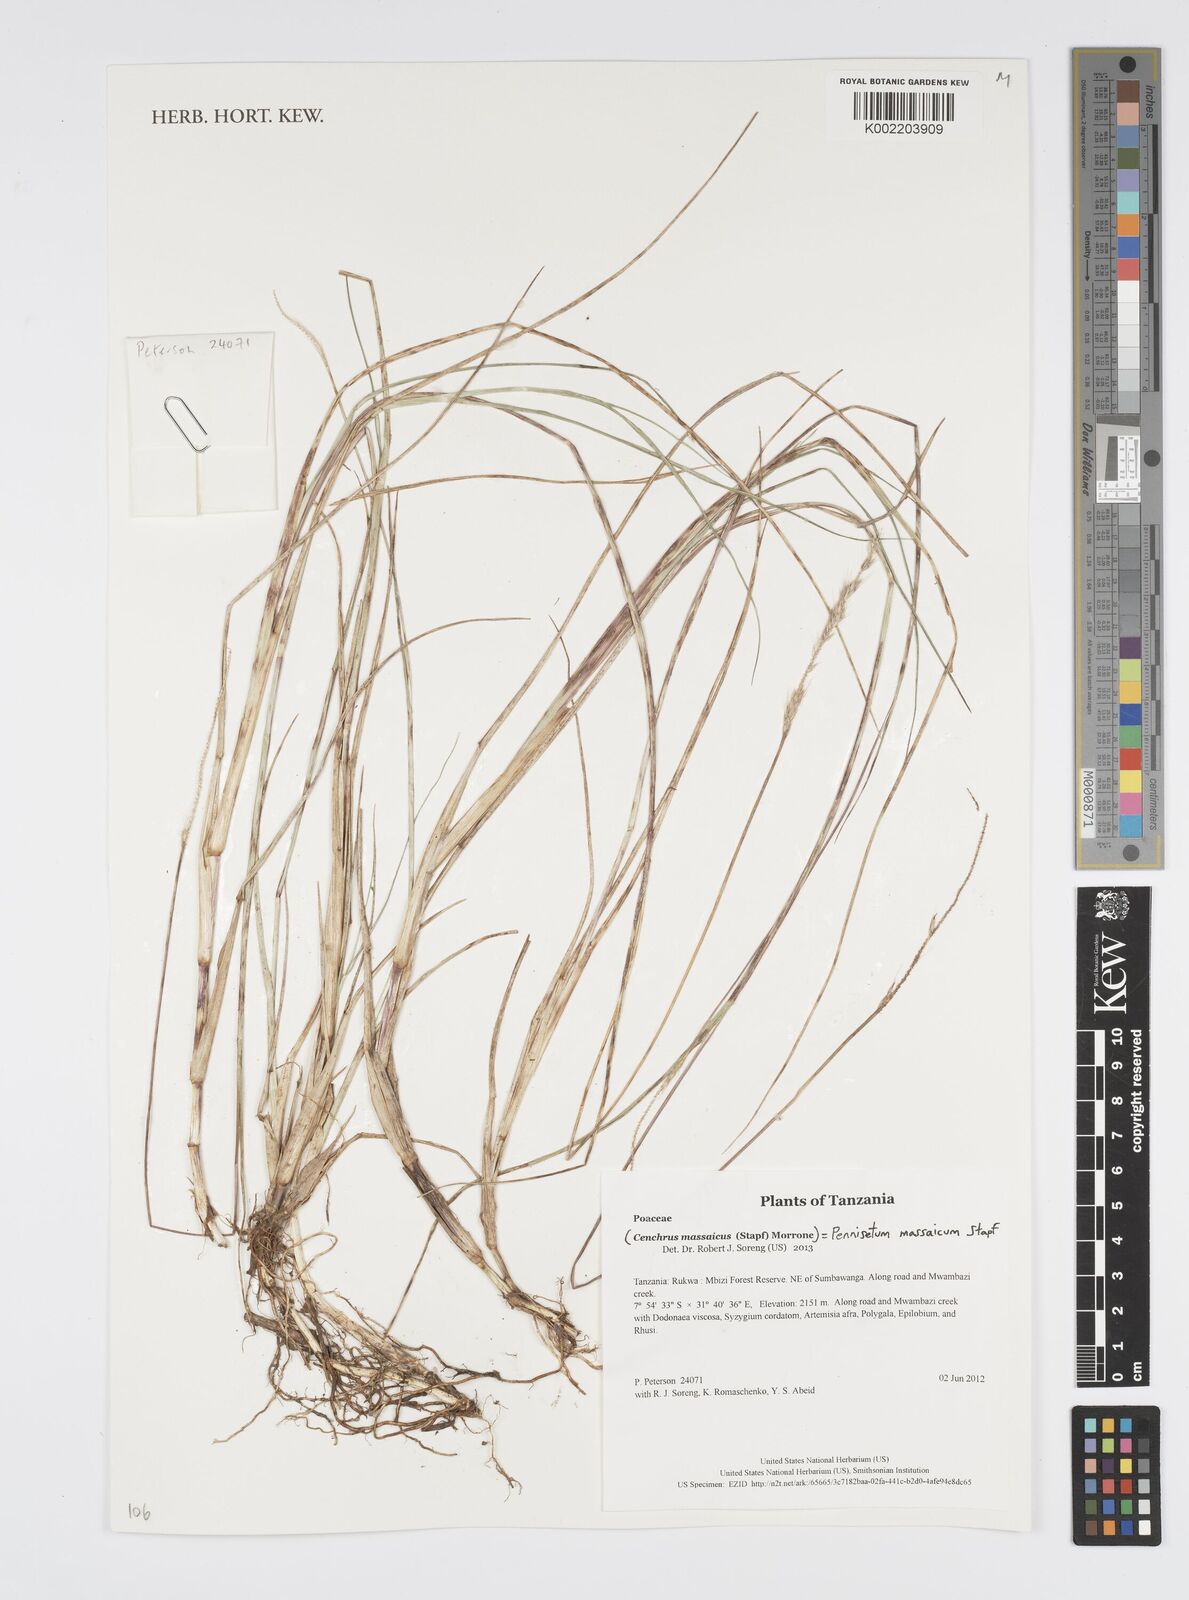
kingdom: Plantae
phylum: Tracheophyta
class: Liliopsida
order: Poales
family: Poaceae
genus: Cenchrus
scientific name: Cenchrus massaicus
